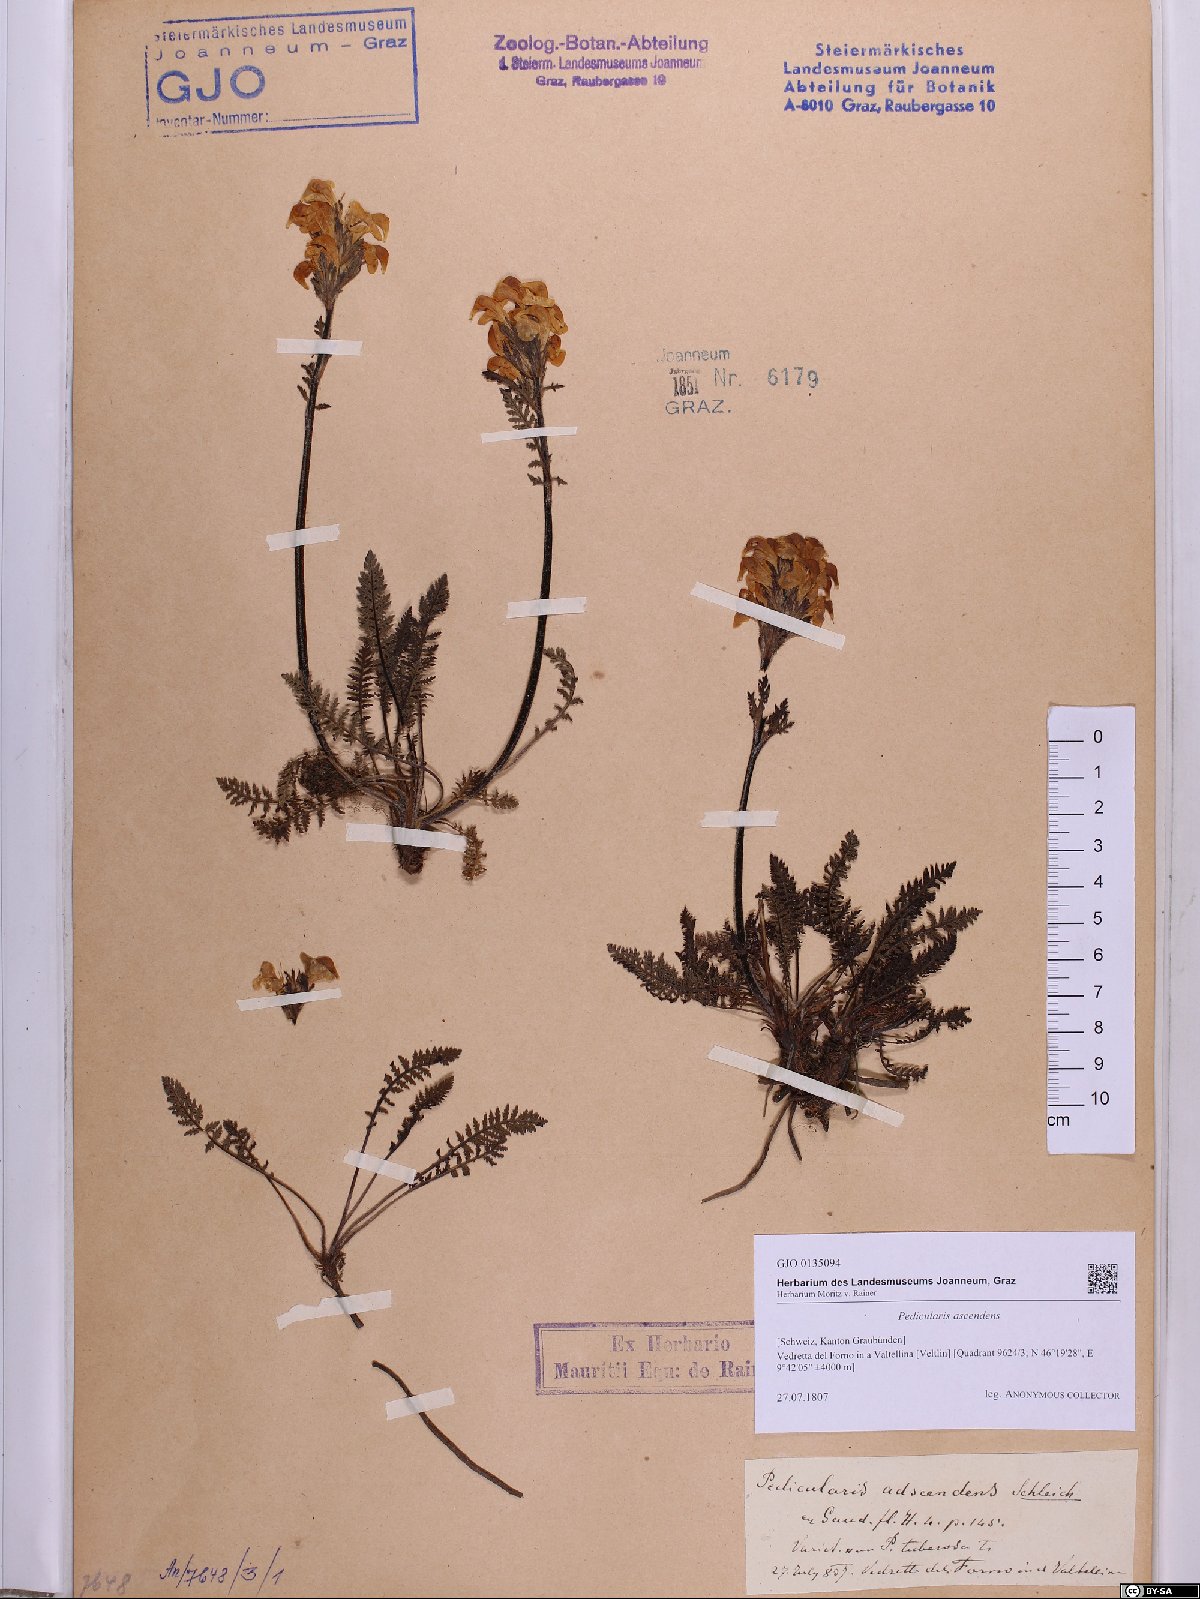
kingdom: Plantae
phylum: Tracheophyta
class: Magnoliopsida
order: Lamiales
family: Orobanchaceae
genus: Pedicularis
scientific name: Pedicularis ascendens
